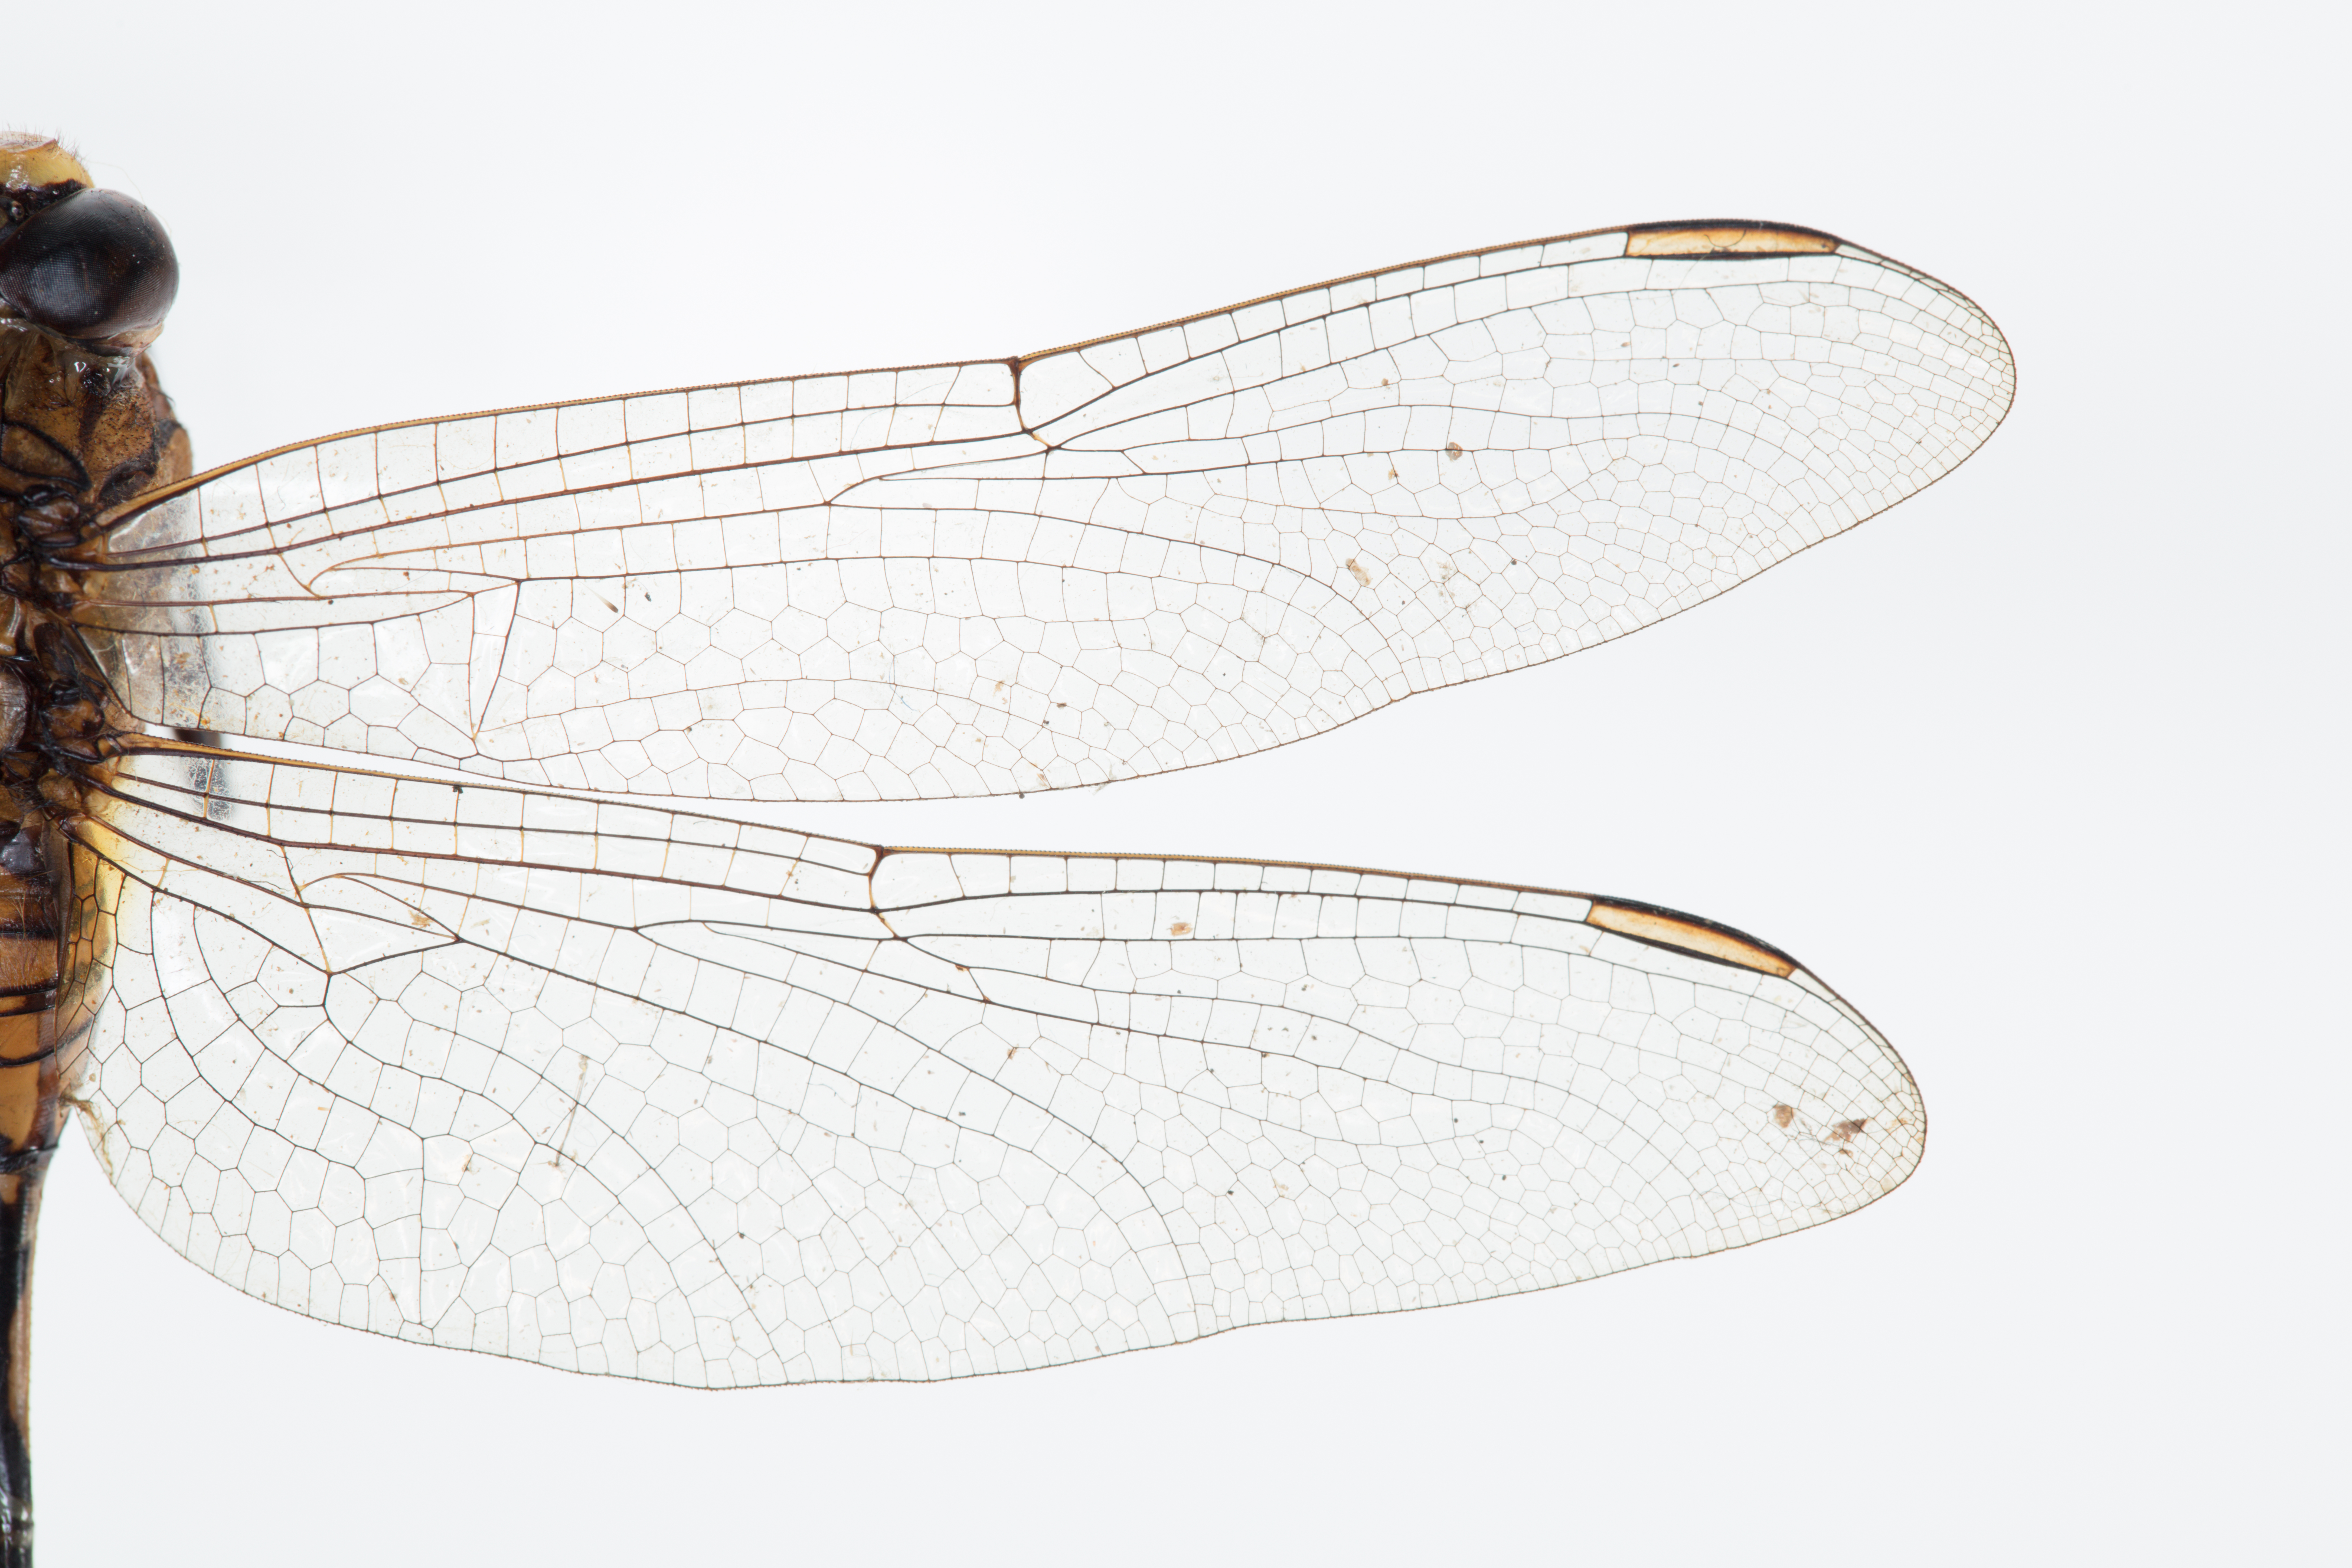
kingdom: Animalia
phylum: Arthropoda
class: Insecta
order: Odonata
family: Libellulidae
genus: Orthetrum
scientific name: Orthetrum sabina
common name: Slender skimmer
